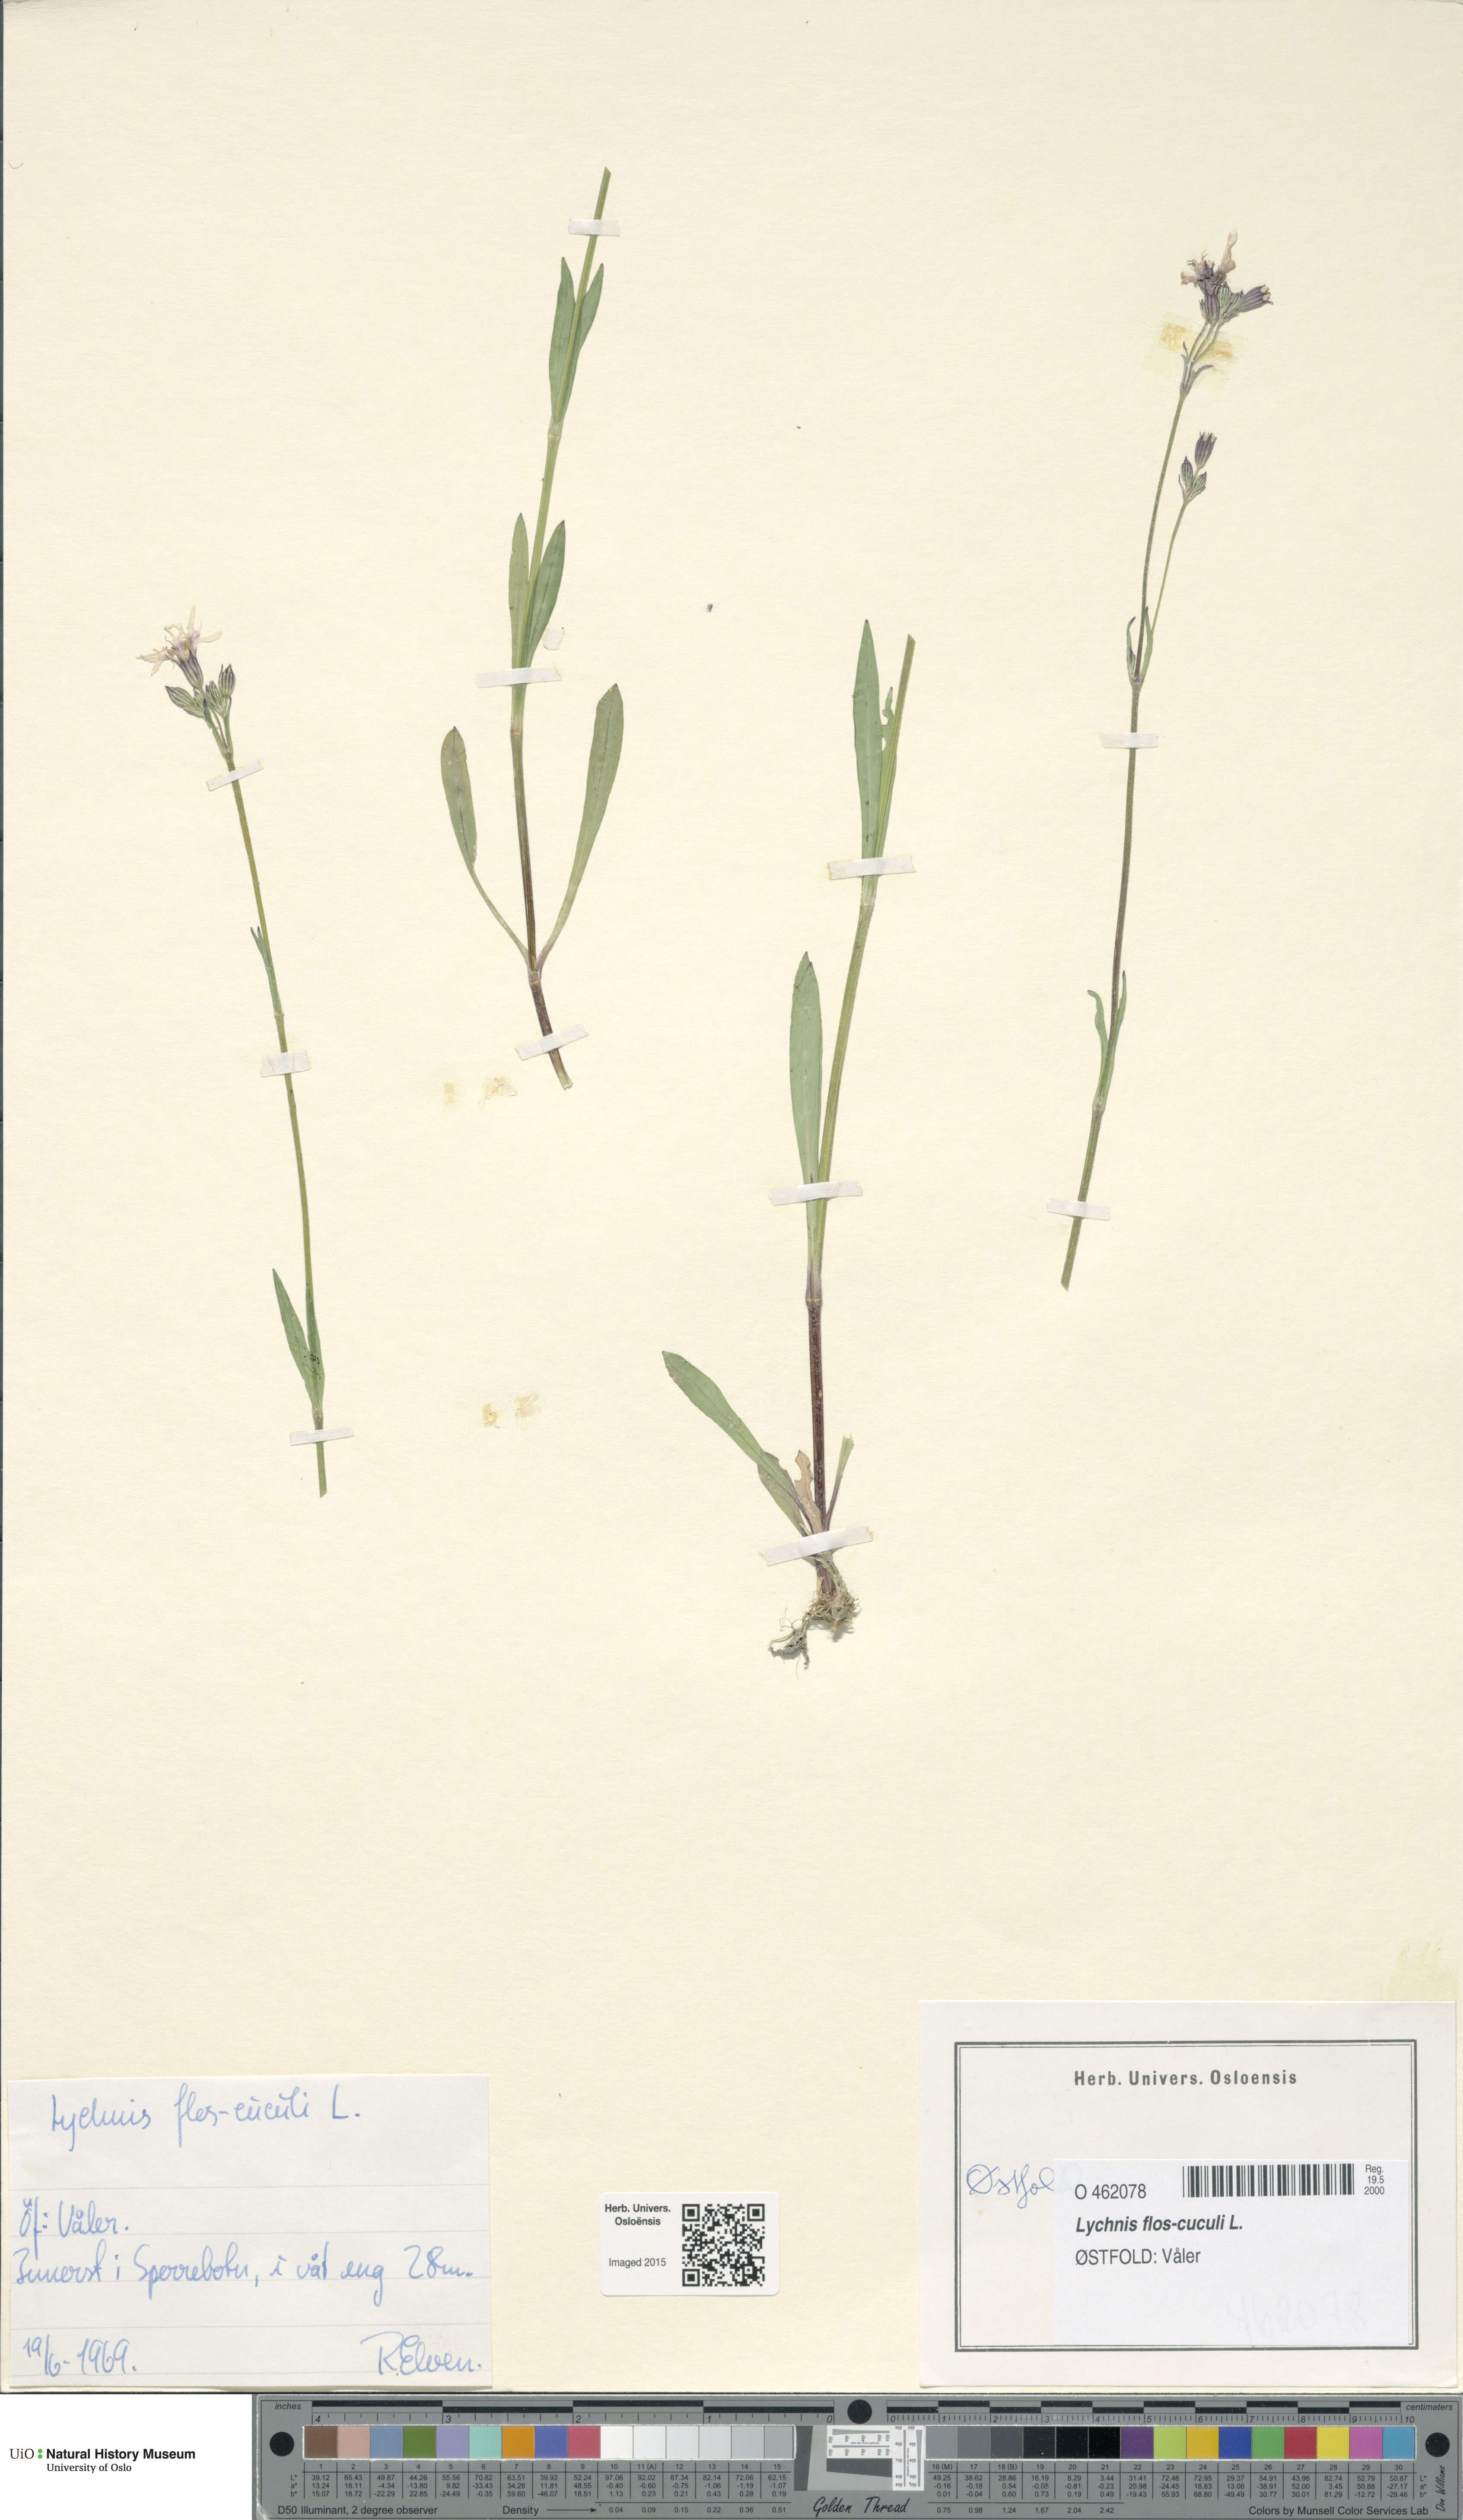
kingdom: Plantae
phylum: Tracheophyta
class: Magnoliopsida
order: Caryophyllales
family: Caryophyllaceae
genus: Silene
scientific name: Silene flos-cuculi
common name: Ragged-robin
